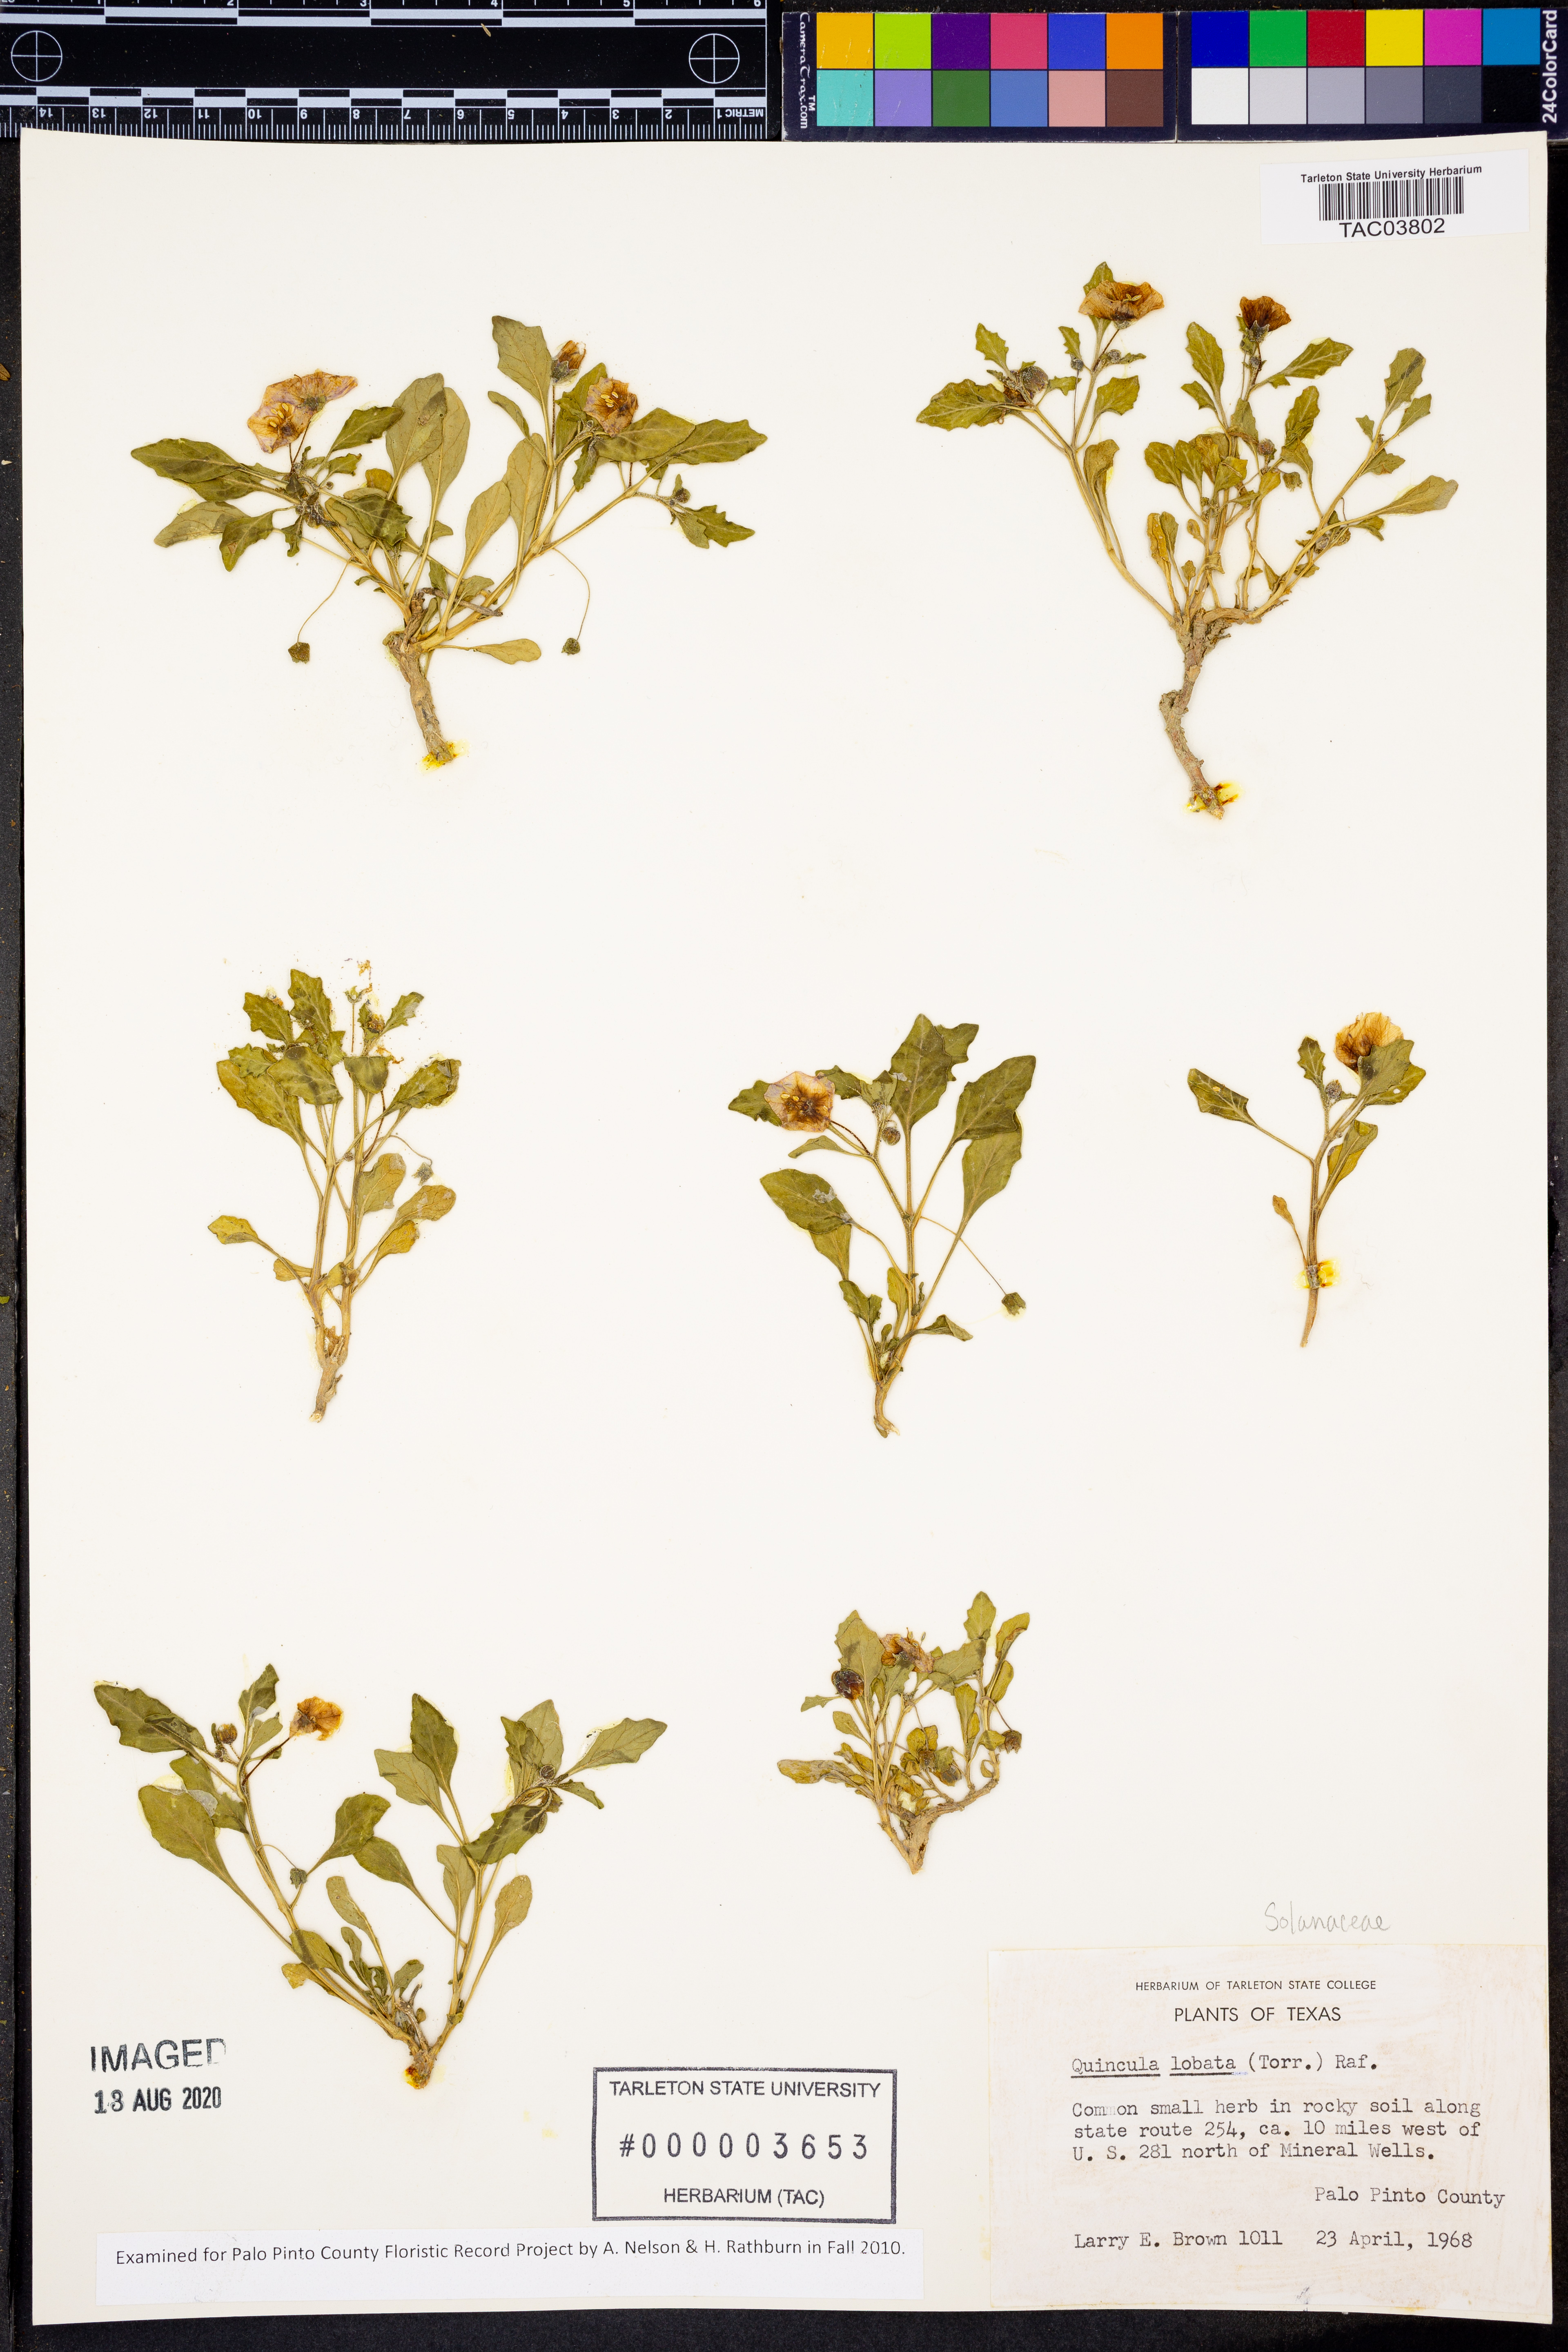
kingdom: Plantae
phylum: Tracheophyta
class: Magnoliopsida
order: Solanales
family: Solanaceae
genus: Quincula
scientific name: Quincula lobata
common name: Purple-ground-cherry
